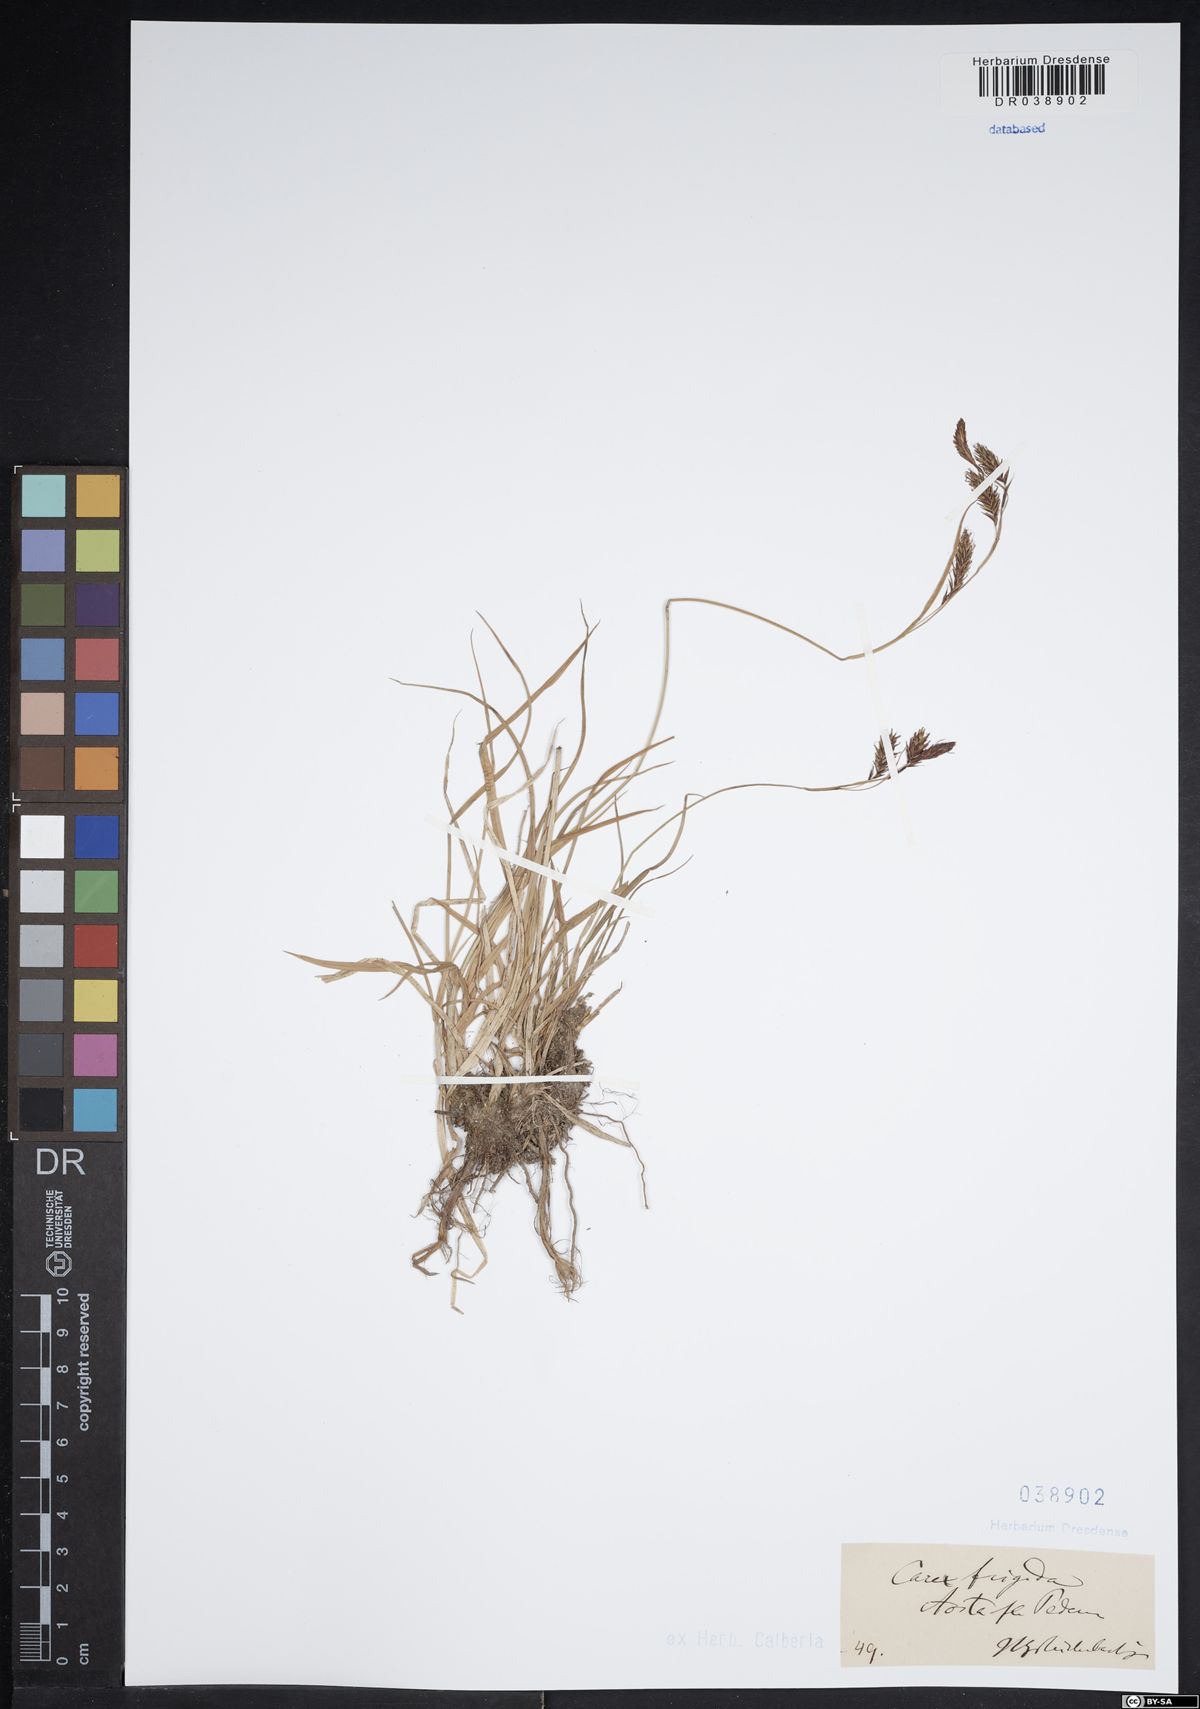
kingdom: Plantae
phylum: Tracheophyta
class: Liliopsida
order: Poales
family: Cyperaceae
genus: Carex
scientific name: Carex frigida
